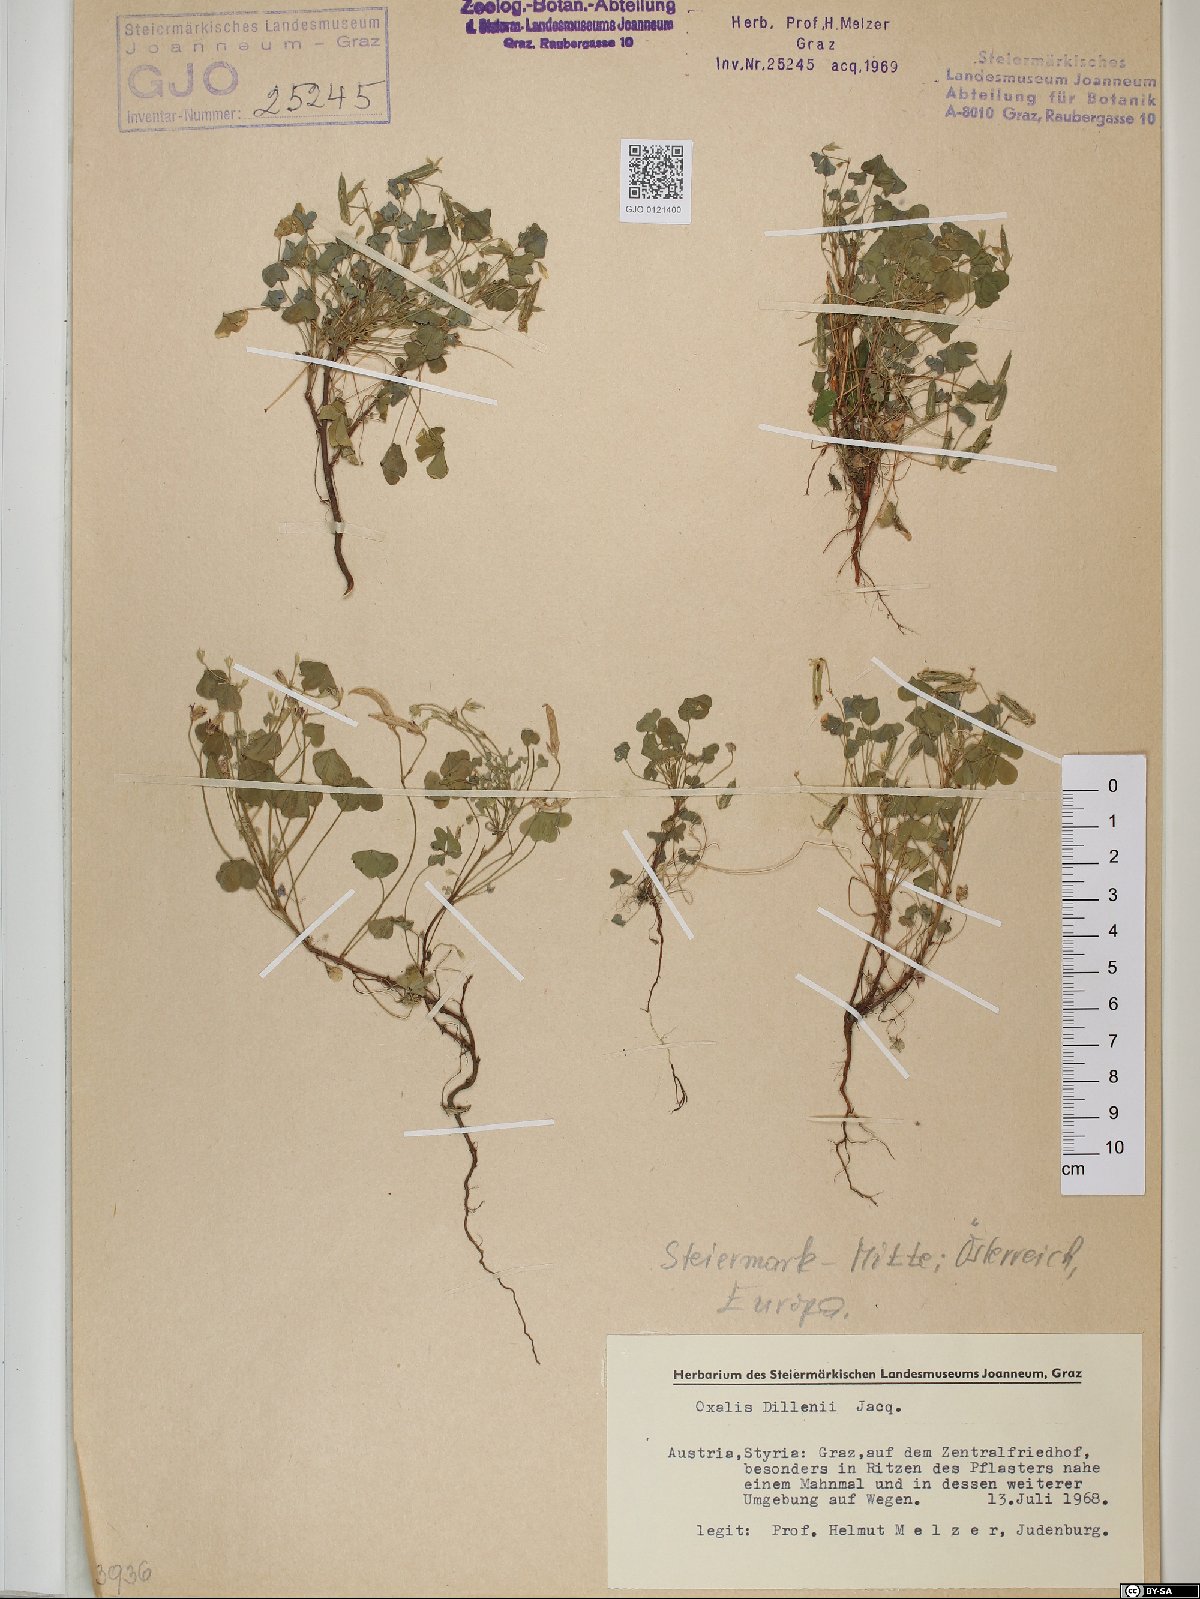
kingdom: Plantae
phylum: Tracheophyta
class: Magnoliopsida
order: Oxalidales
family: Oxalidaceae
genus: Oxalis
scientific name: Oxalis dillenii
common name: Sussex yellow-sorrel
